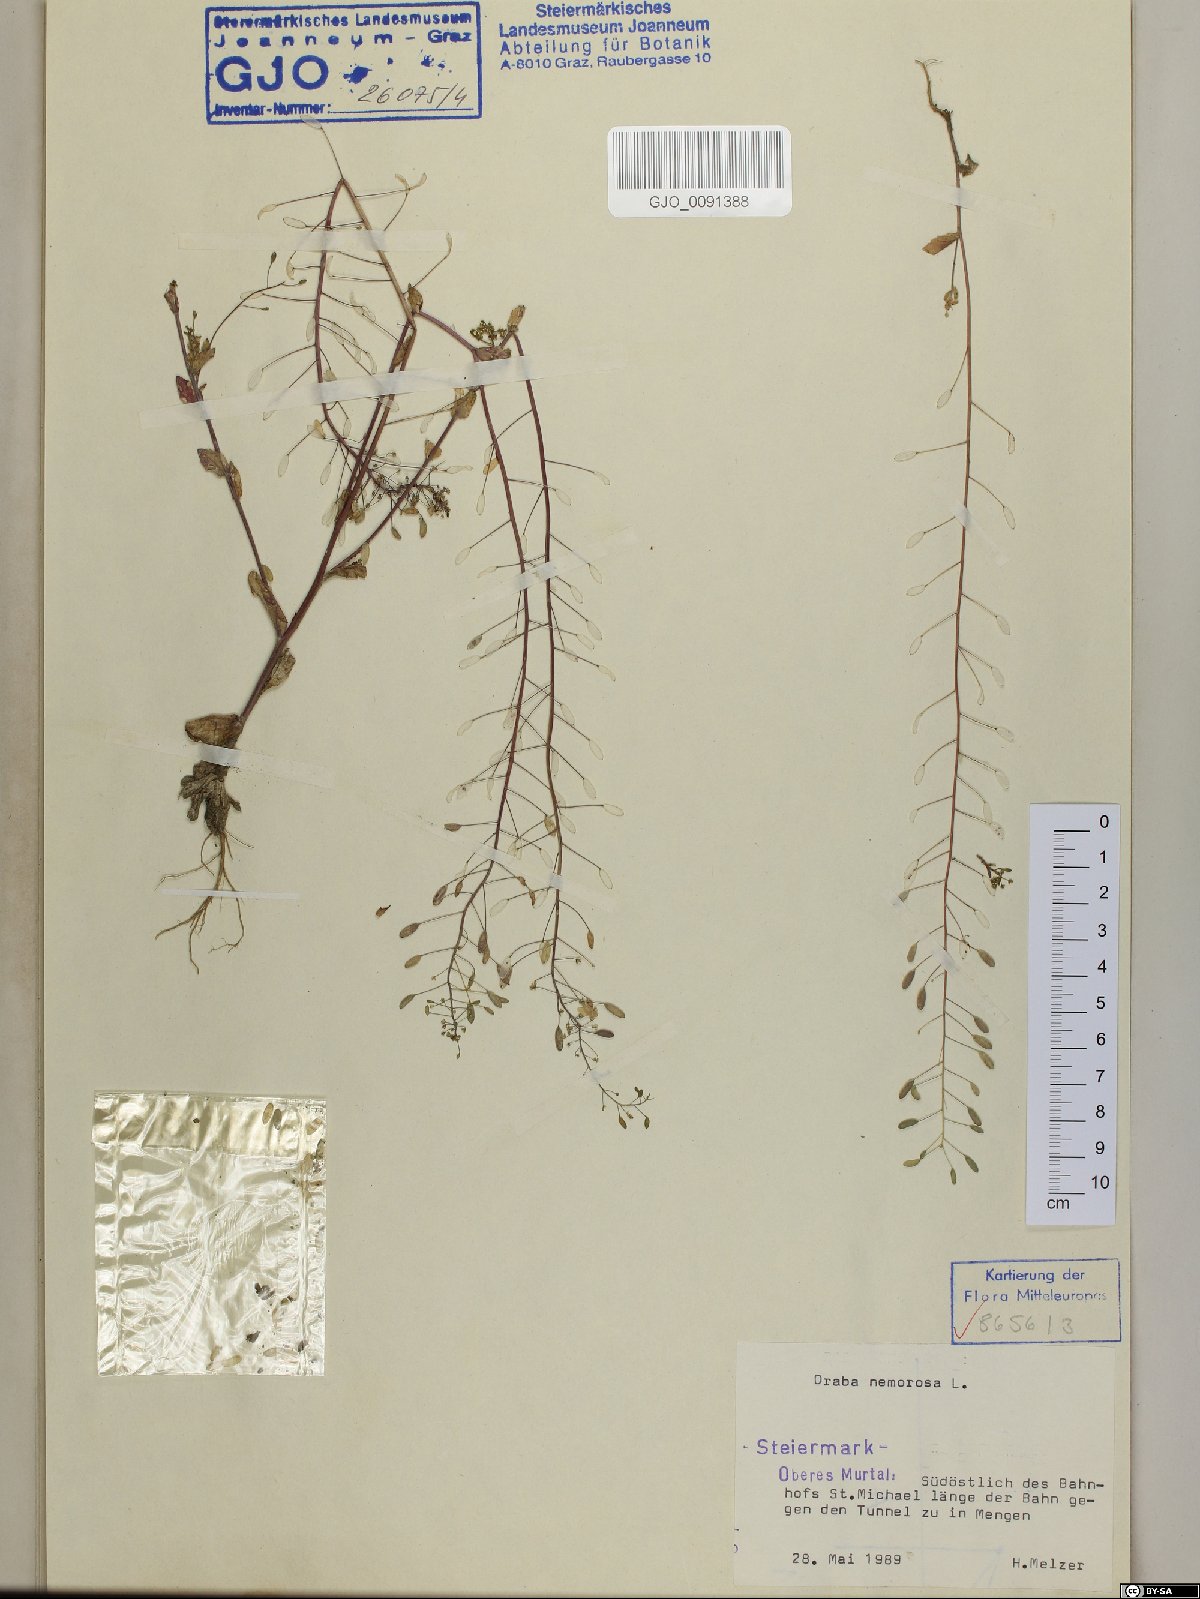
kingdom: Plantae
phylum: Tracheophyta
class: Magnoliopsida
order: Brassicales
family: Brassicaceae
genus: Draba
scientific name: Draba nemorosa
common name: Wood whitlow-grass
